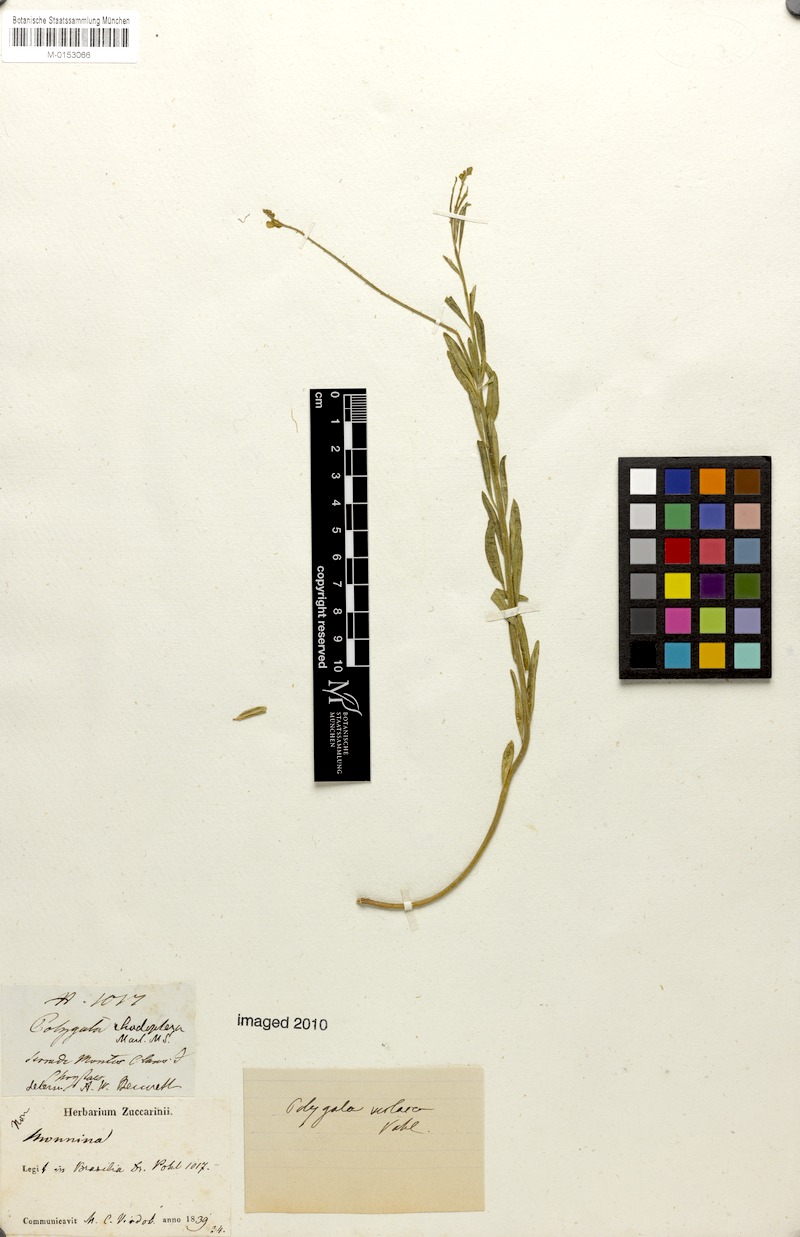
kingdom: Plantae
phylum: Tracheophyta
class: Magnoliopsida
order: Fabales
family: Polygalaceae
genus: Asemeia
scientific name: Asemeia rhodoptera
